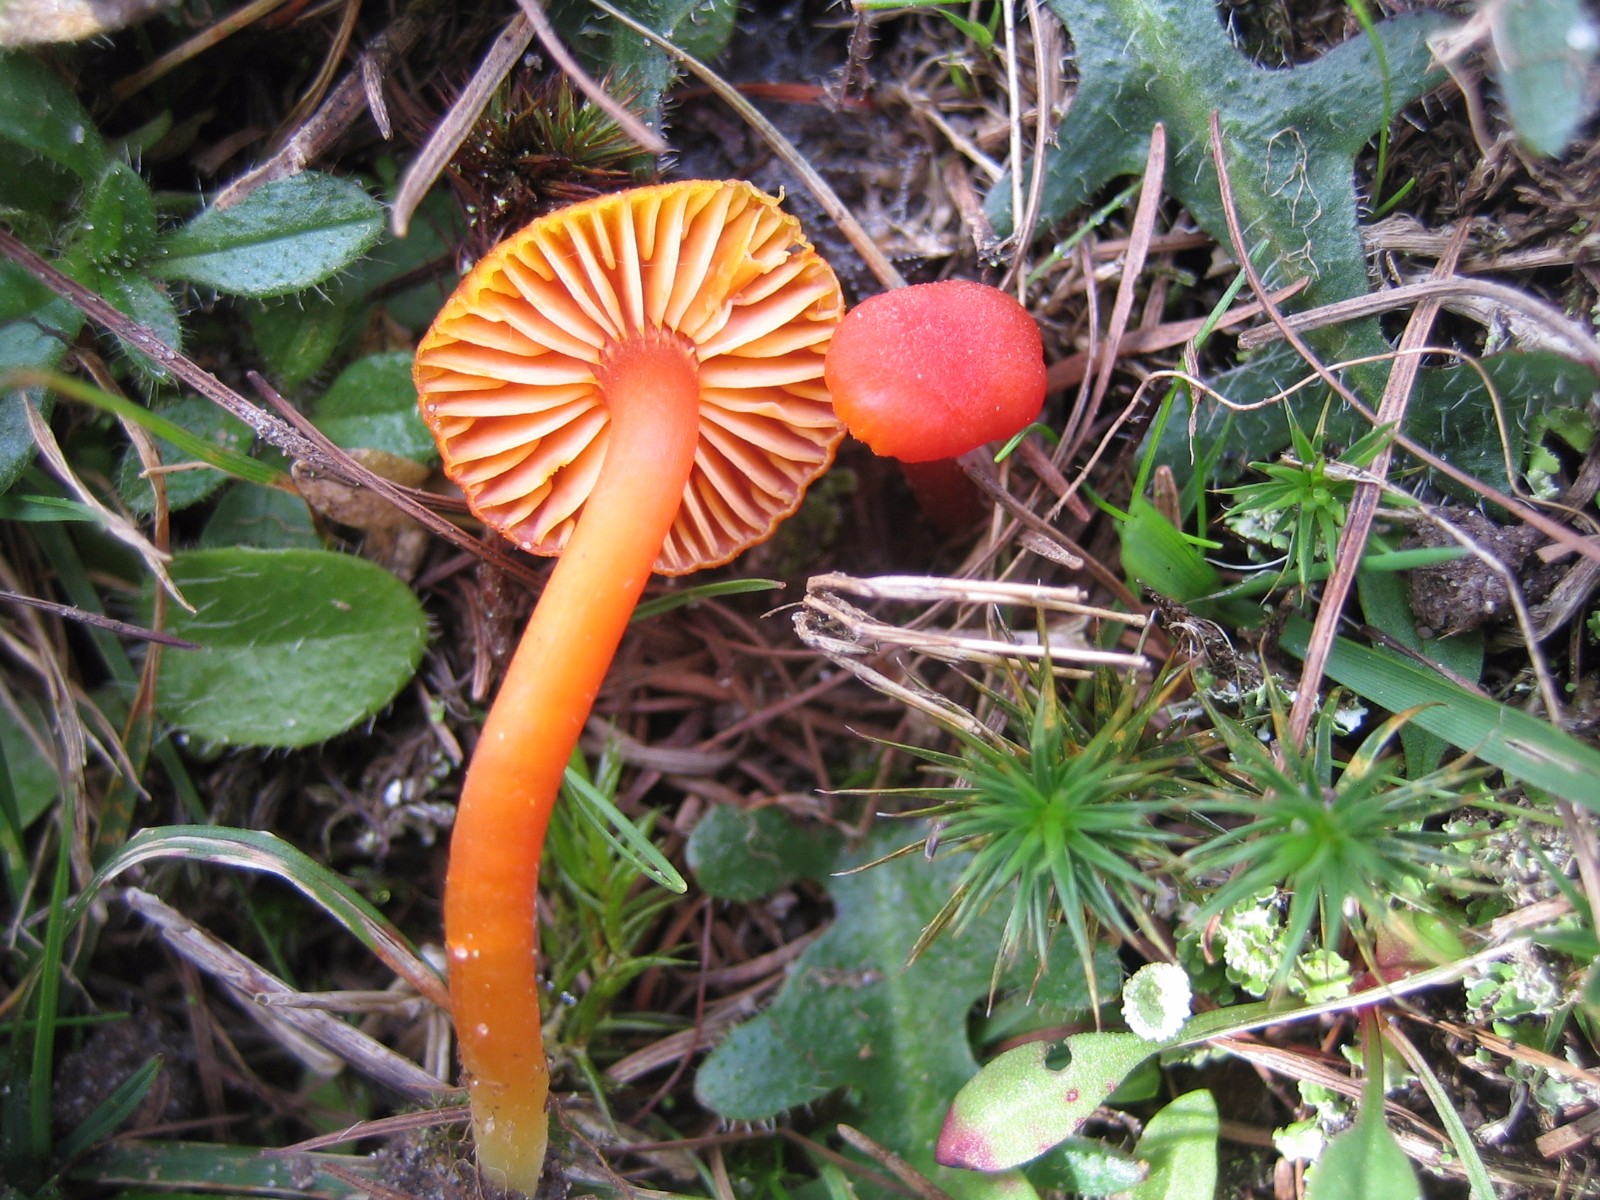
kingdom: Fungi
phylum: Basidiomycota
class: Agaricomycetes
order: Agaricales
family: Hygrophoraceae
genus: Hygrocybe
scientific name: Hygrocybe phaeococcinea
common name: sortdugget vokshat
